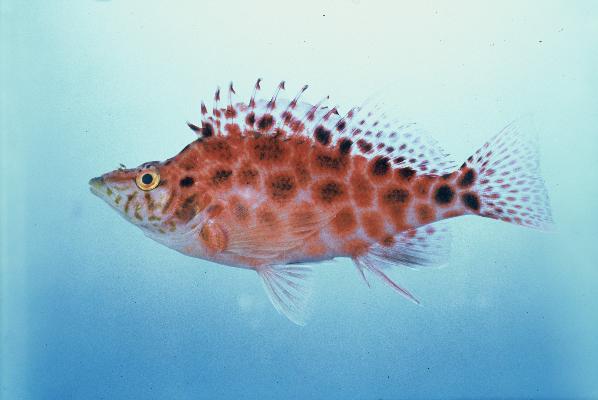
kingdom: Animalia
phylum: Chordata
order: Perciformes
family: Cirrhitidae
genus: Cirrhitichthys
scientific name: Cirrhitichthys guichenoti
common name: Cave hawkfish
